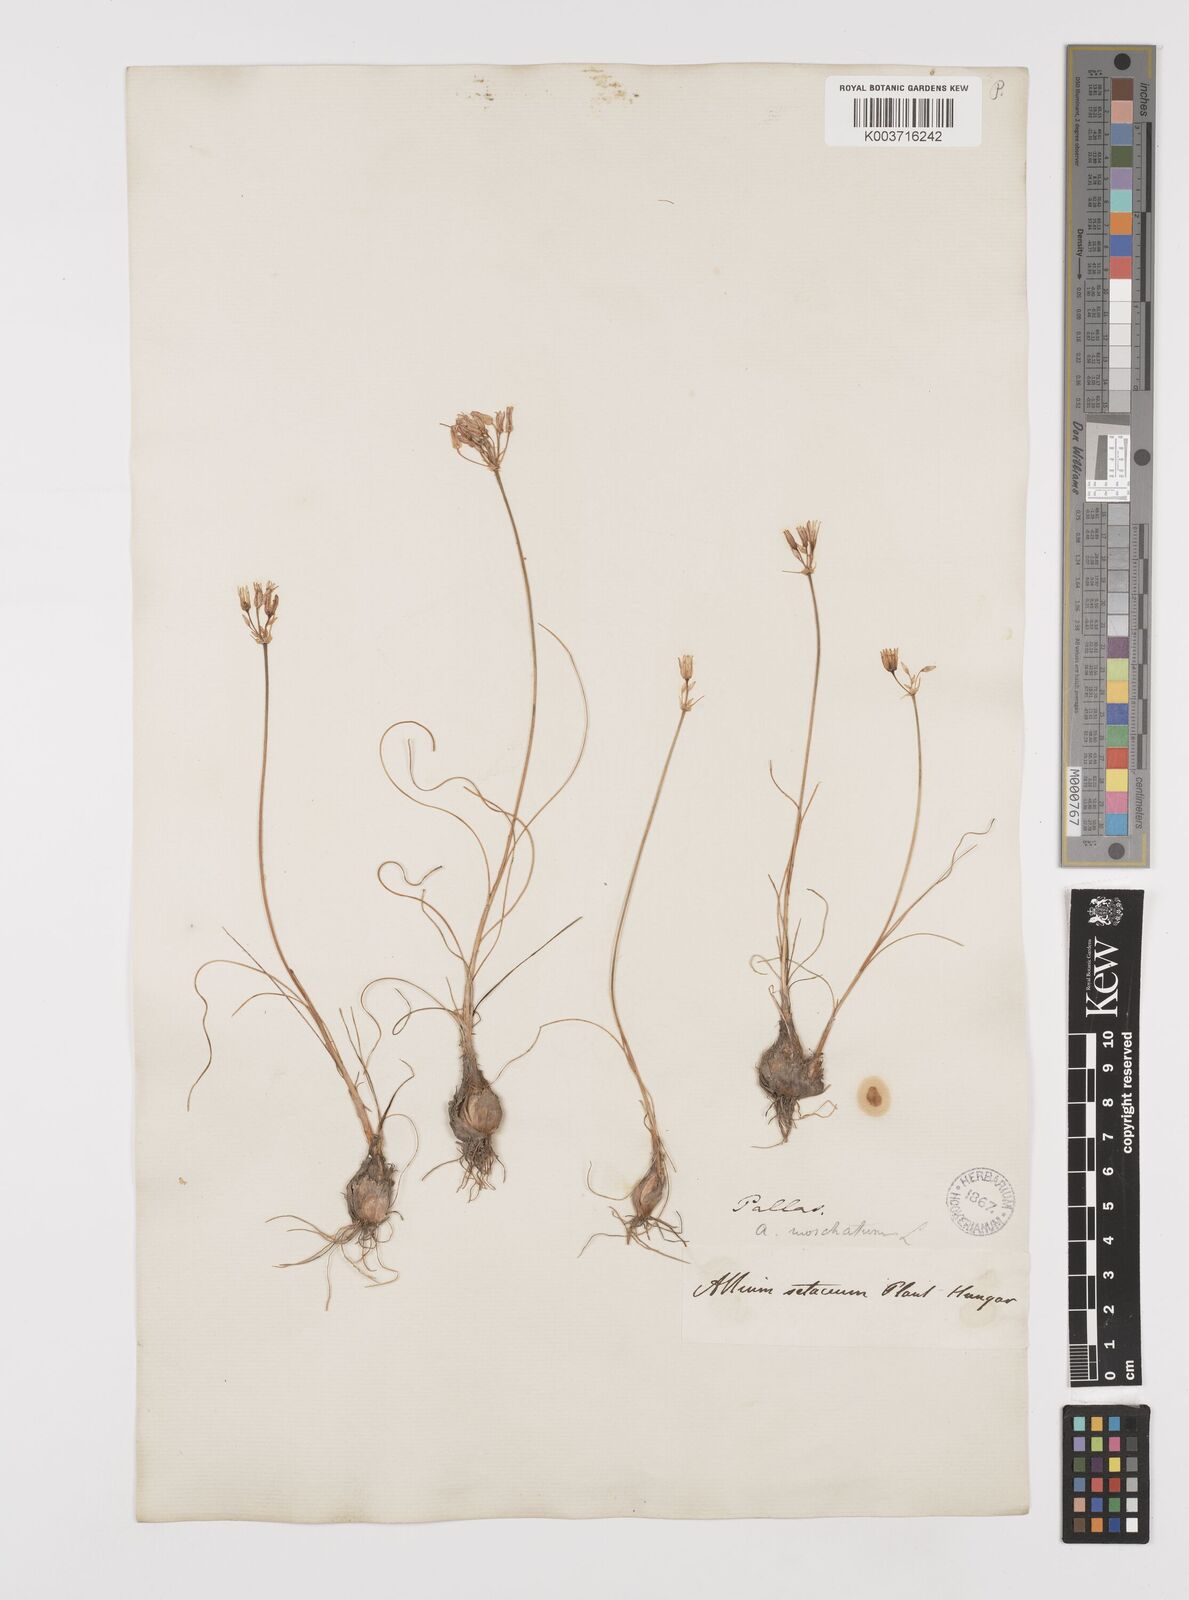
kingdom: Plantae
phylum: Tracheophyta
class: Liliopsida
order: Asparagales
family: Amaryllidaceae
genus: Allium
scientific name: Allium moschatum
